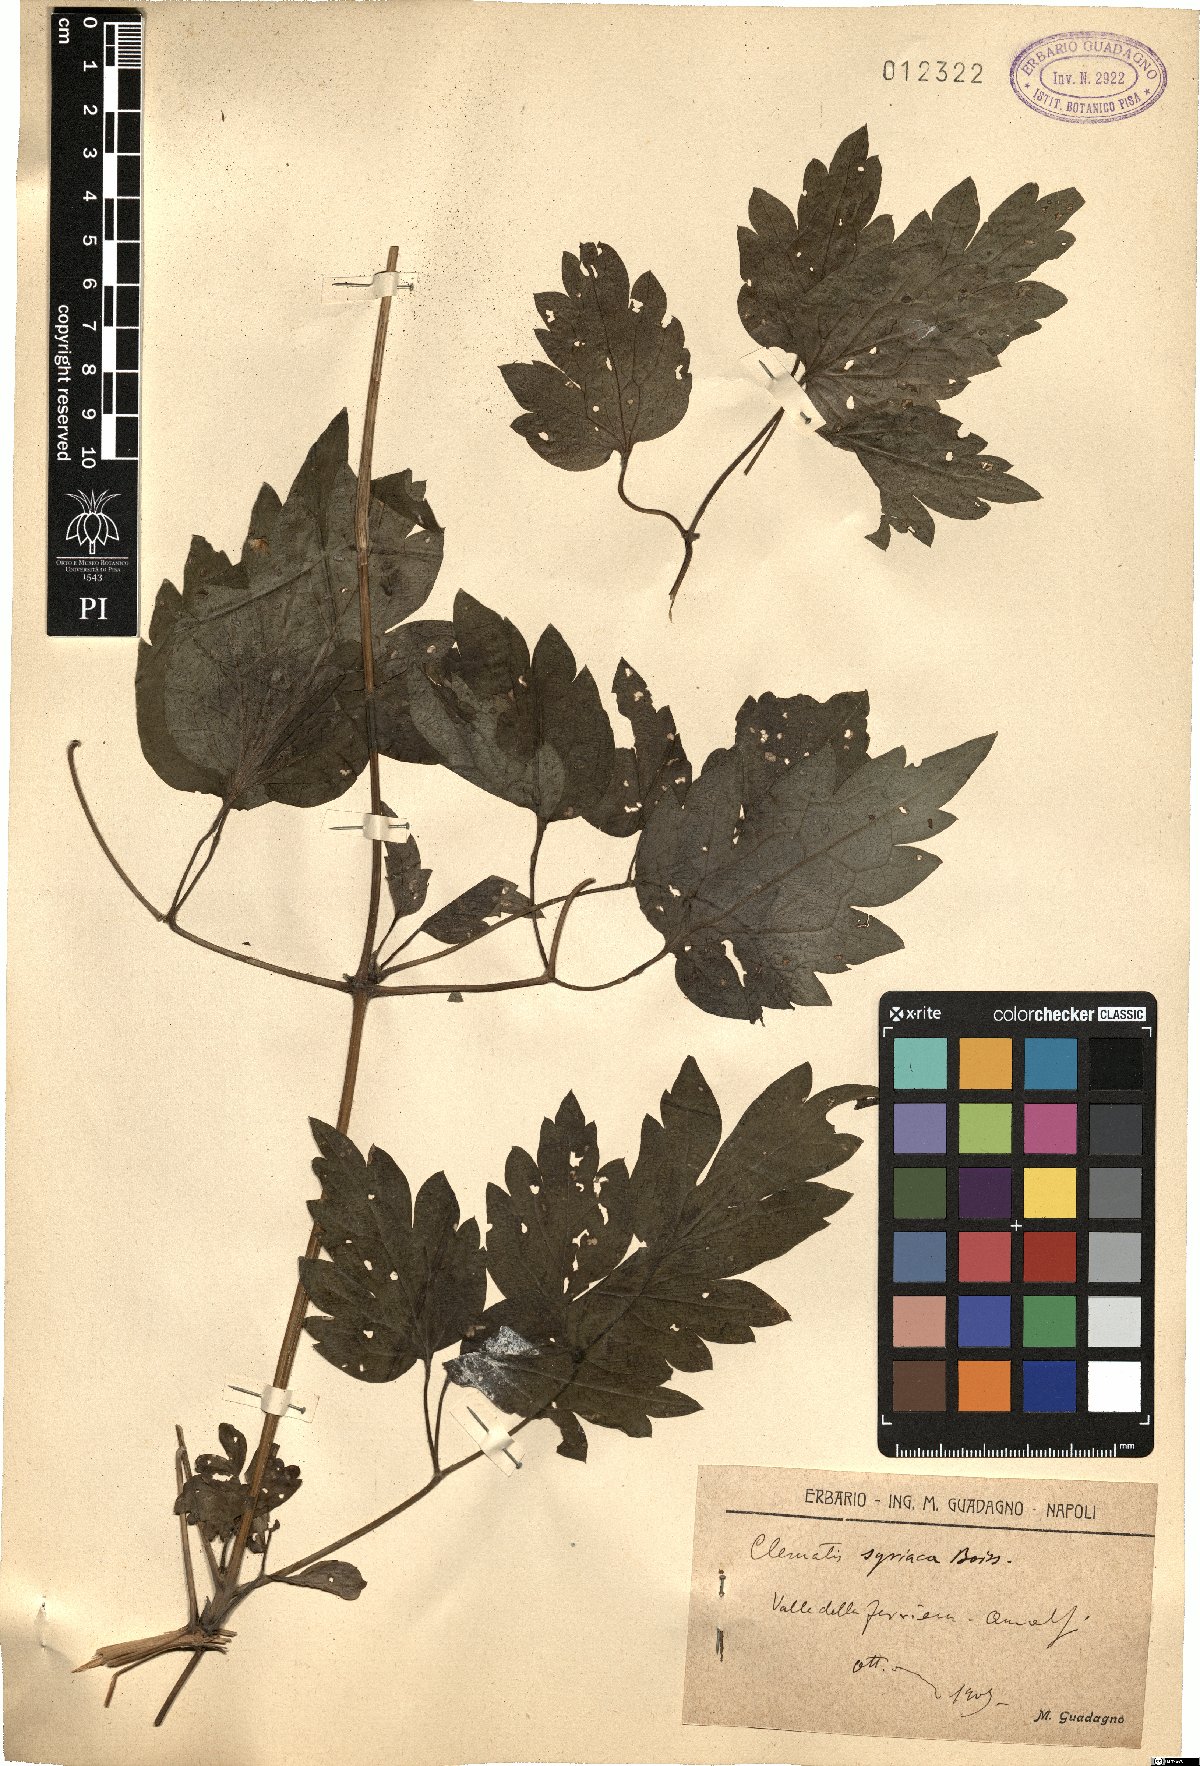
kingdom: Plantae
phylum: Tracheophyta
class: Magnoliopsida
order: Ranunculales
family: Ranunculaceae
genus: Clematis
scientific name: Clematis vitalba
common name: Evergreen clematis
